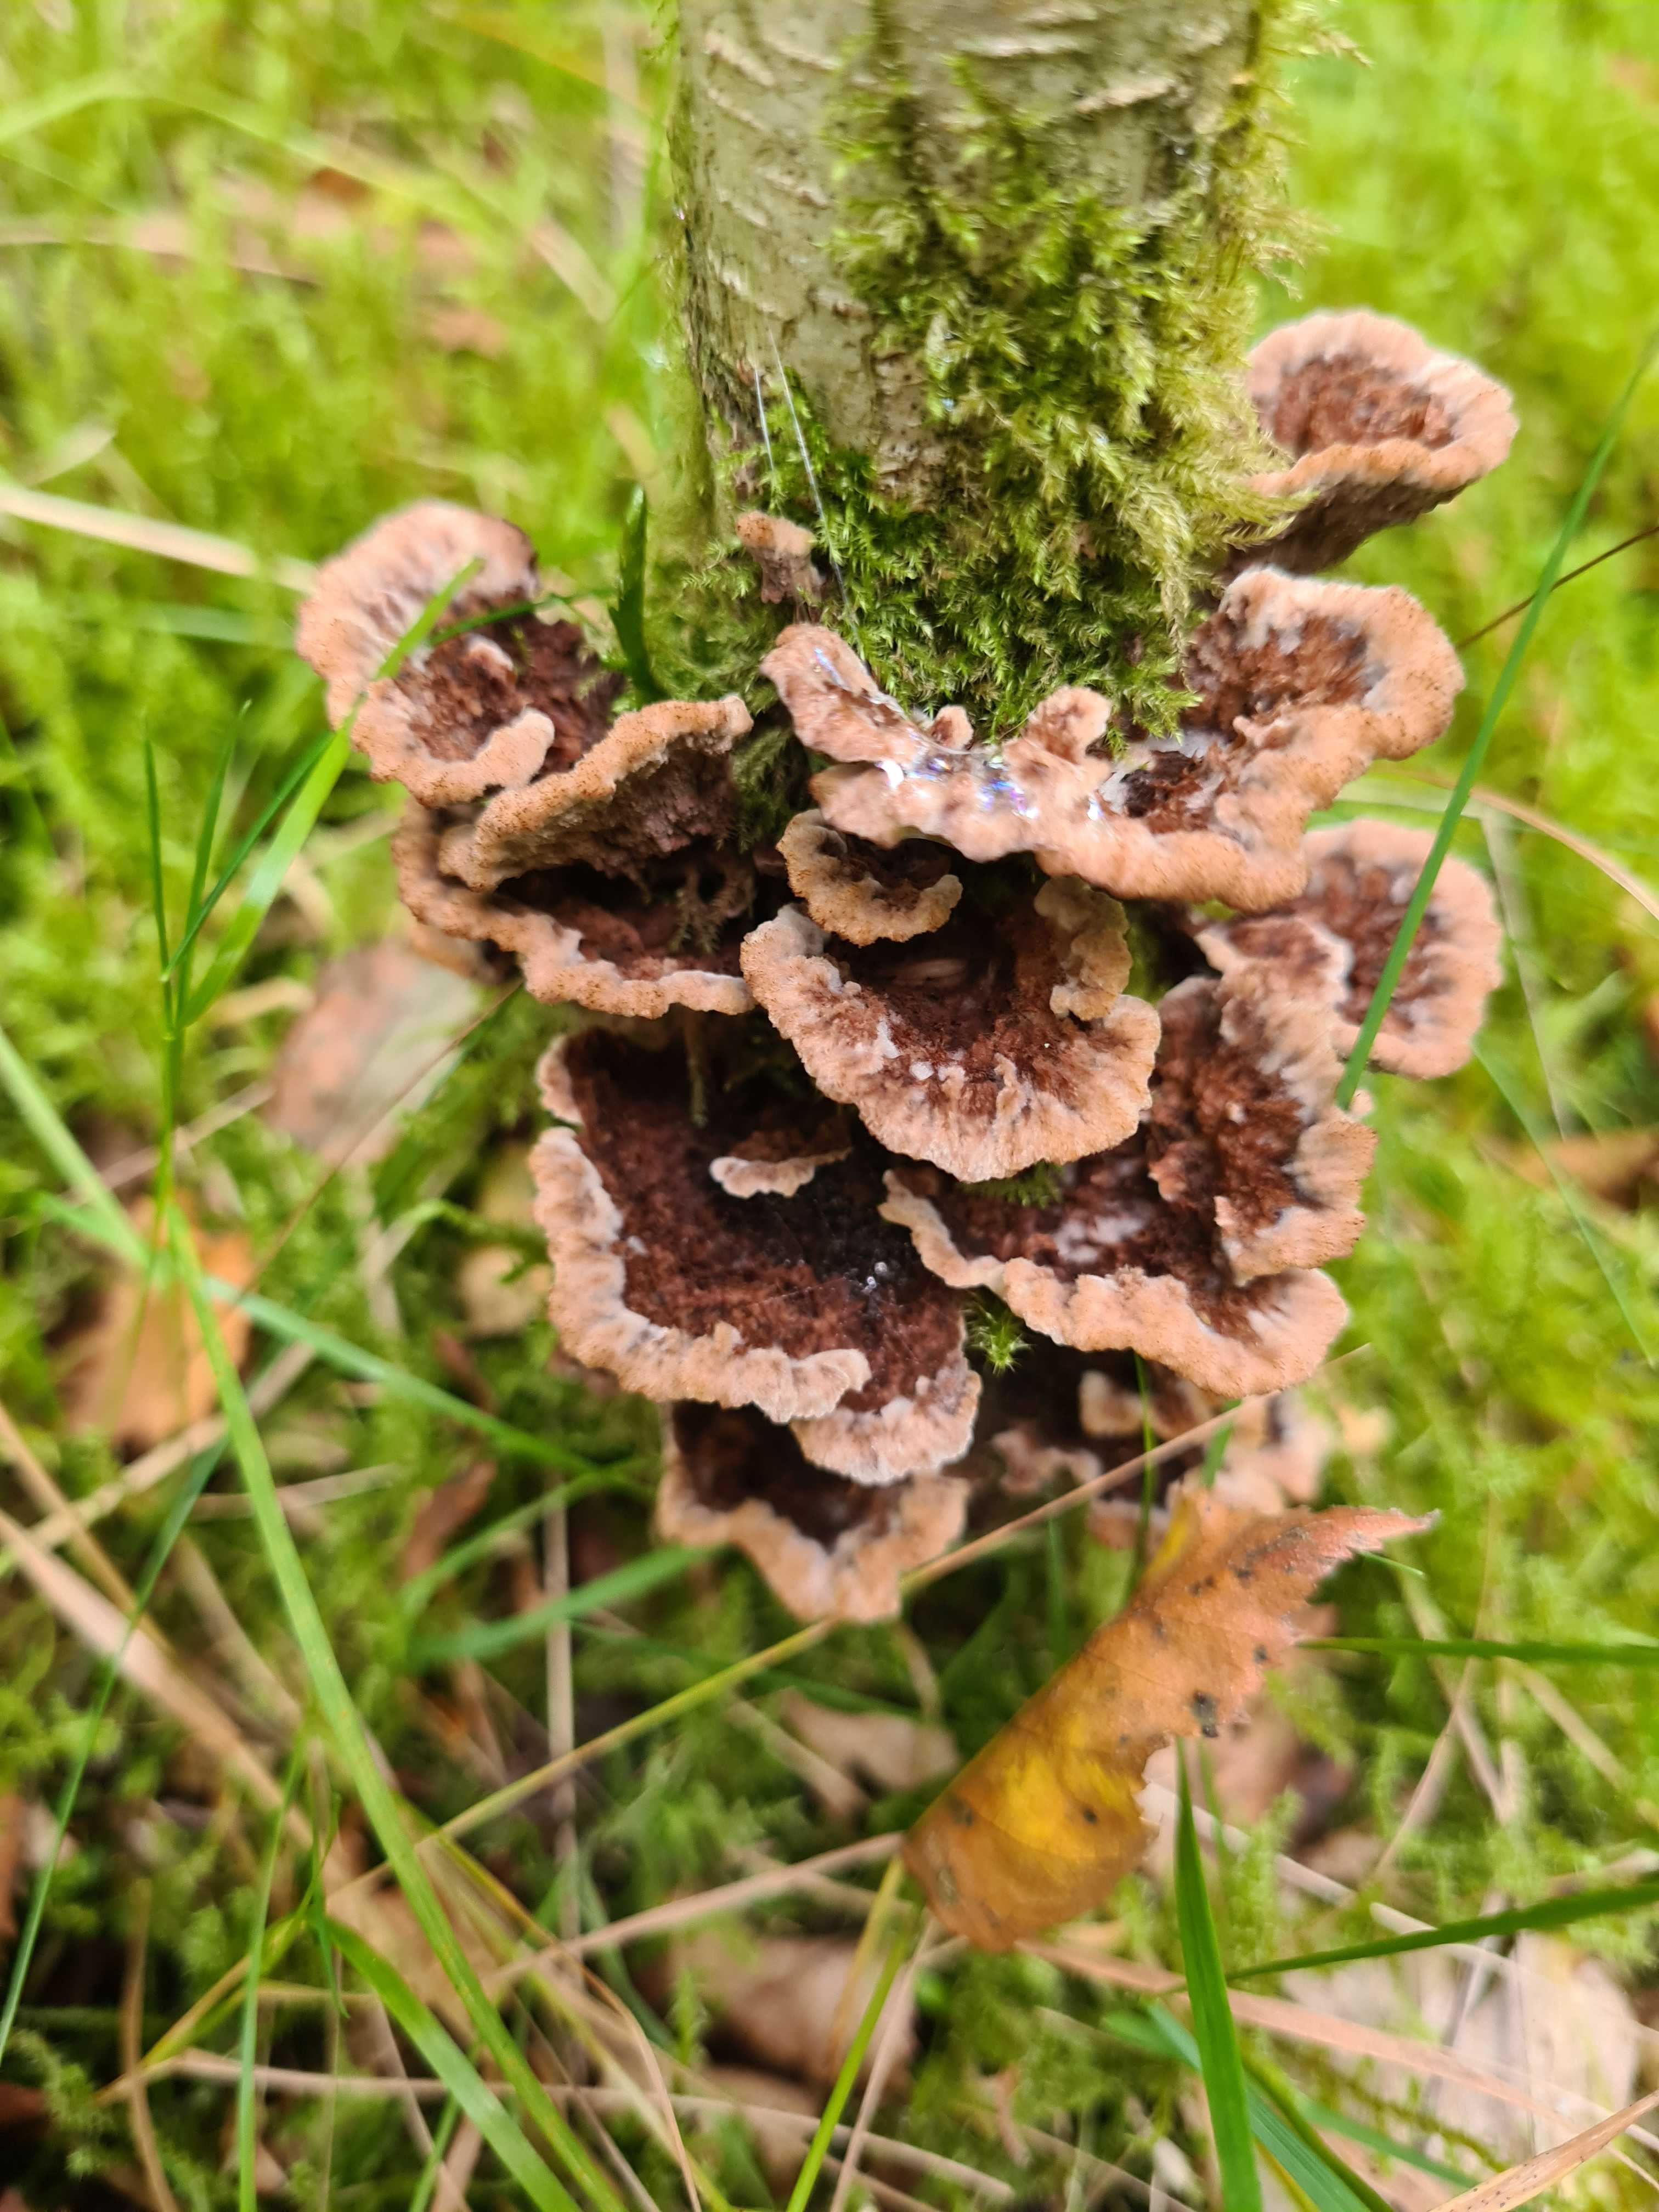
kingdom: Fungi
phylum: Basidiomycota
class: Agaricomycetes
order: Thelephorales
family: Thelephoraceae
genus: Thelephora
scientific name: Thelephora terrestris
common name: fliget frynsesvamp
